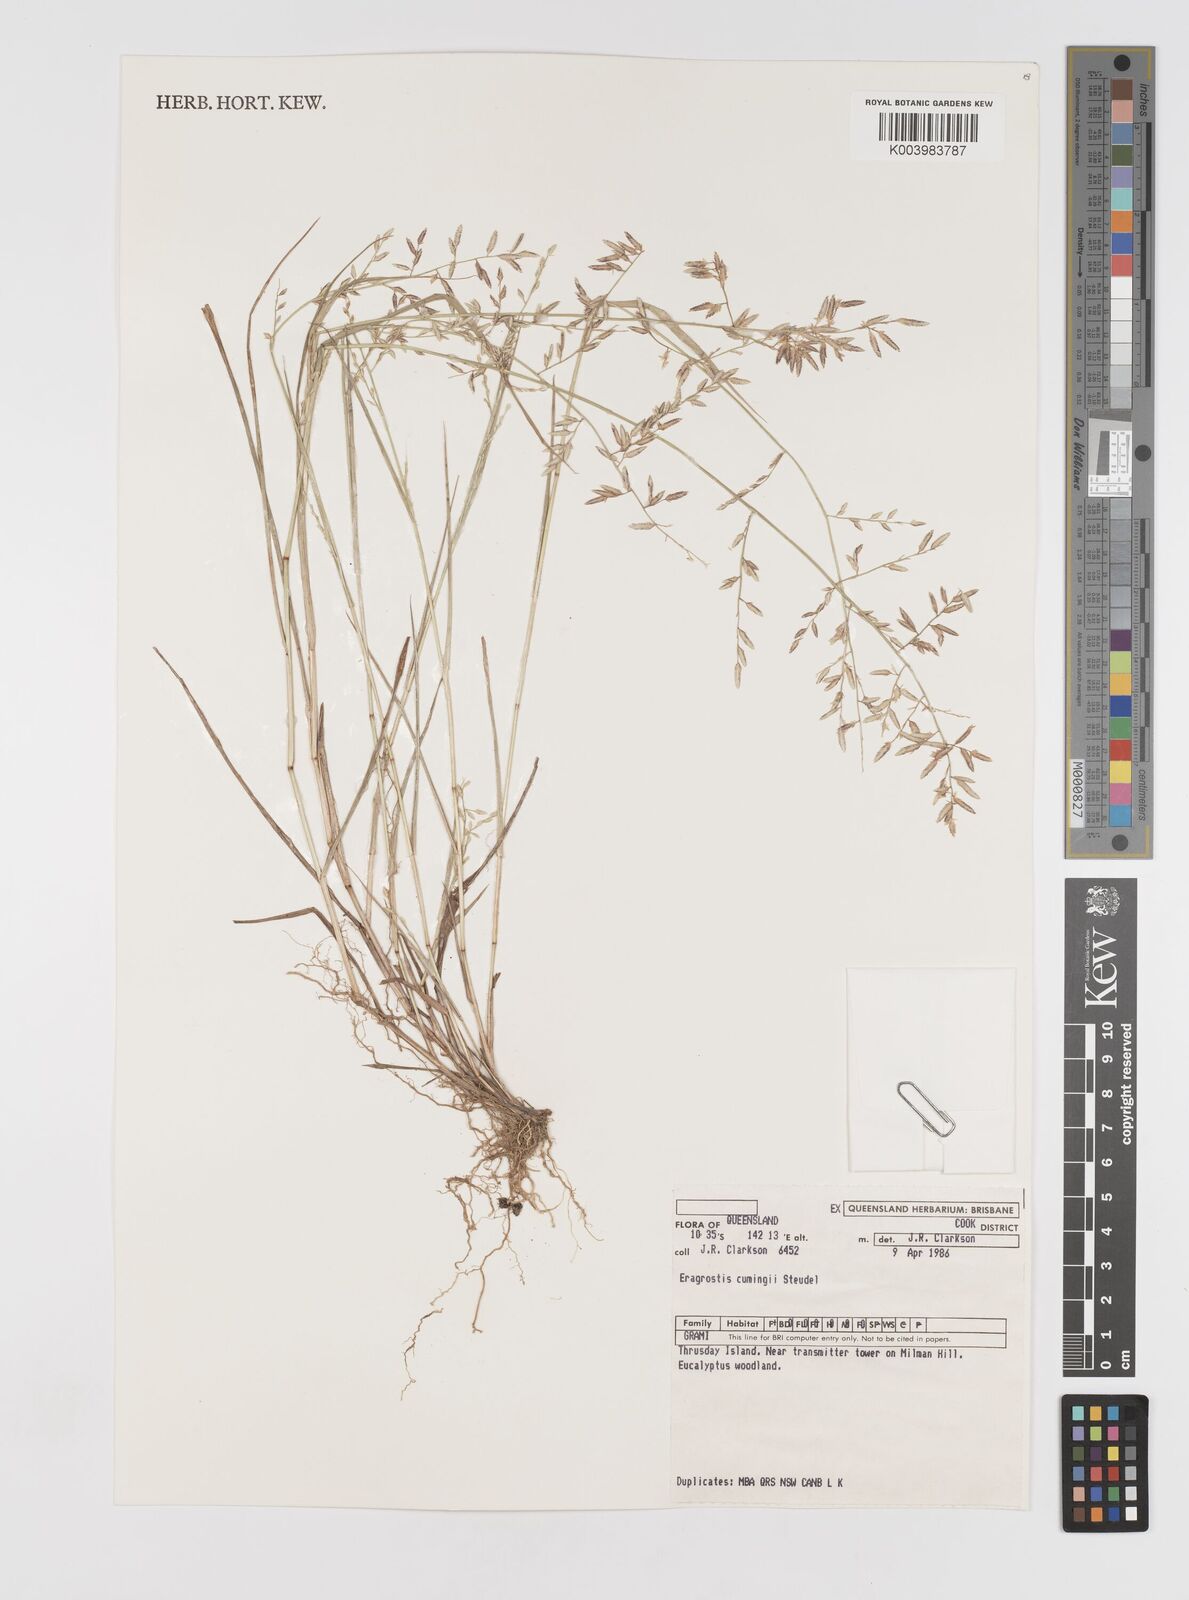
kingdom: Plantae
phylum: Tracheophyta
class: Liliopsida
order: Poales
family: Poaceae
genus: Eragrostis
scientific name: Eragrostis cumingii
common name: Cuming's lovegrass
